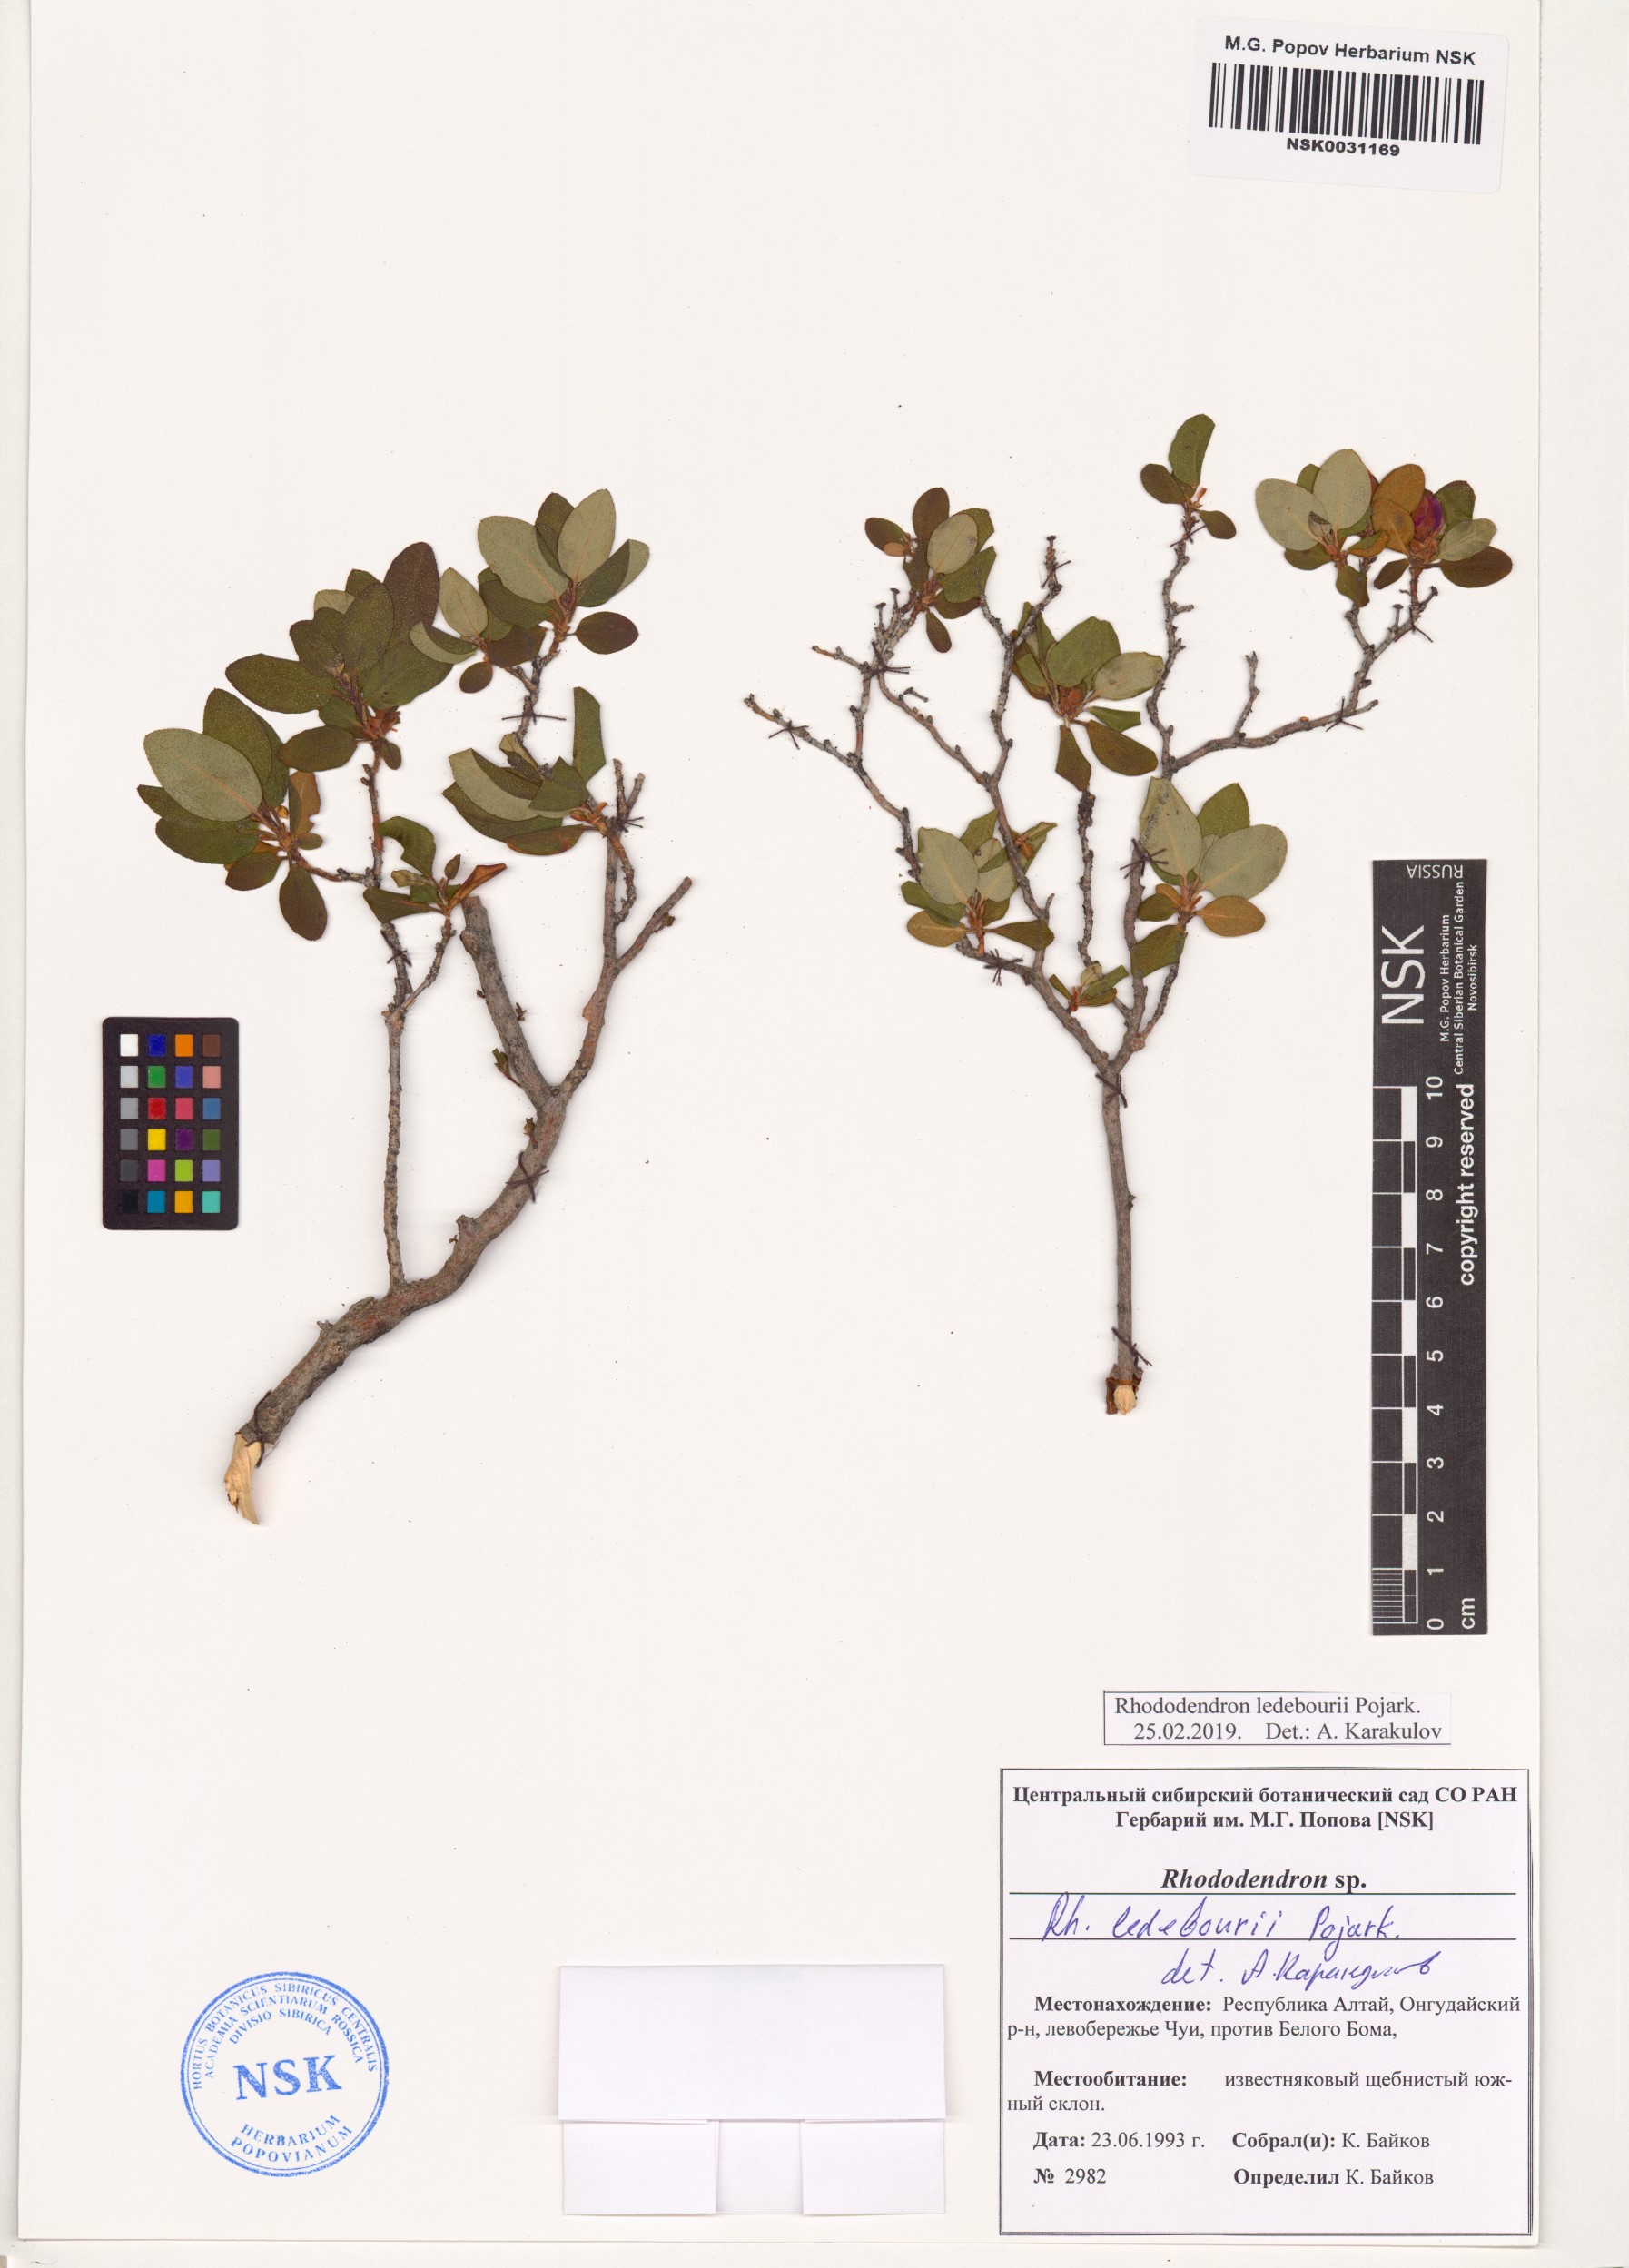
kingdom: Plantae
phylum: Tracheophyta
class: Magnoliopsida
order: Ericales
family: Ericaceae
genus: Rhododendron
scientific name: Rhododendron dauricum
